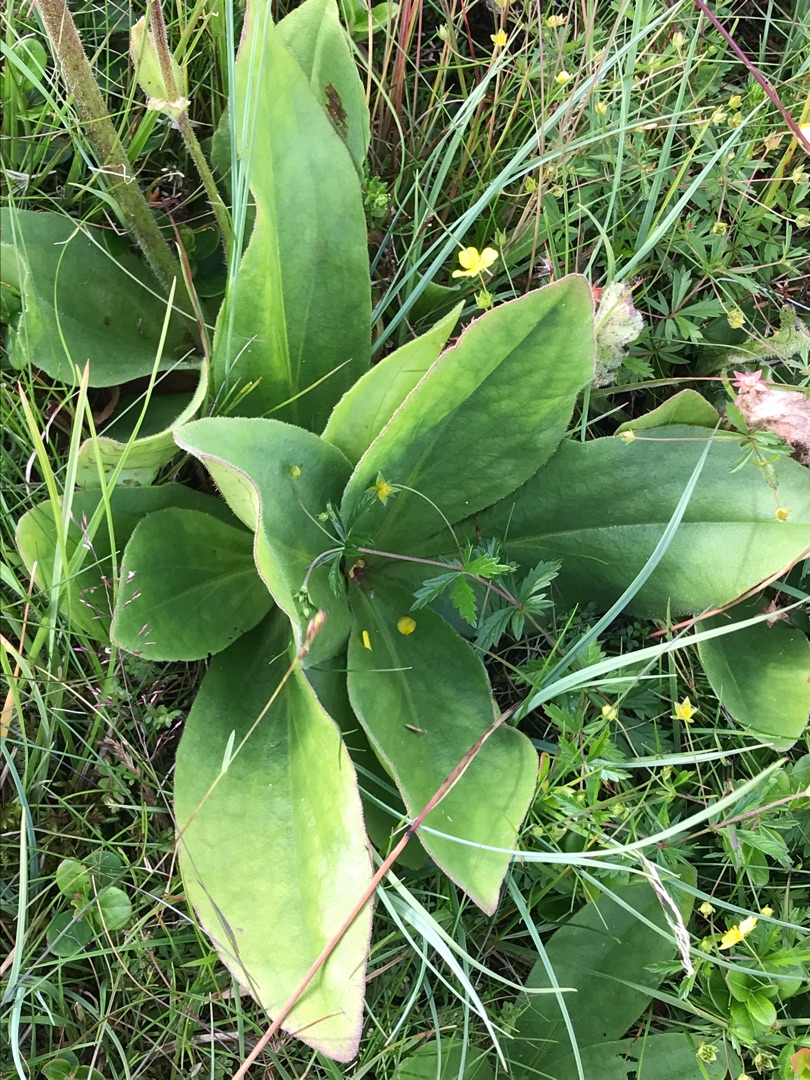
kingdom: Plantae
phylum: Tracheophyta
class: Magnoliopsida
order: Asterales
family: Asteraceae
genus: Arnica
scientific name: Arnica montana
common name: Guldblomme
